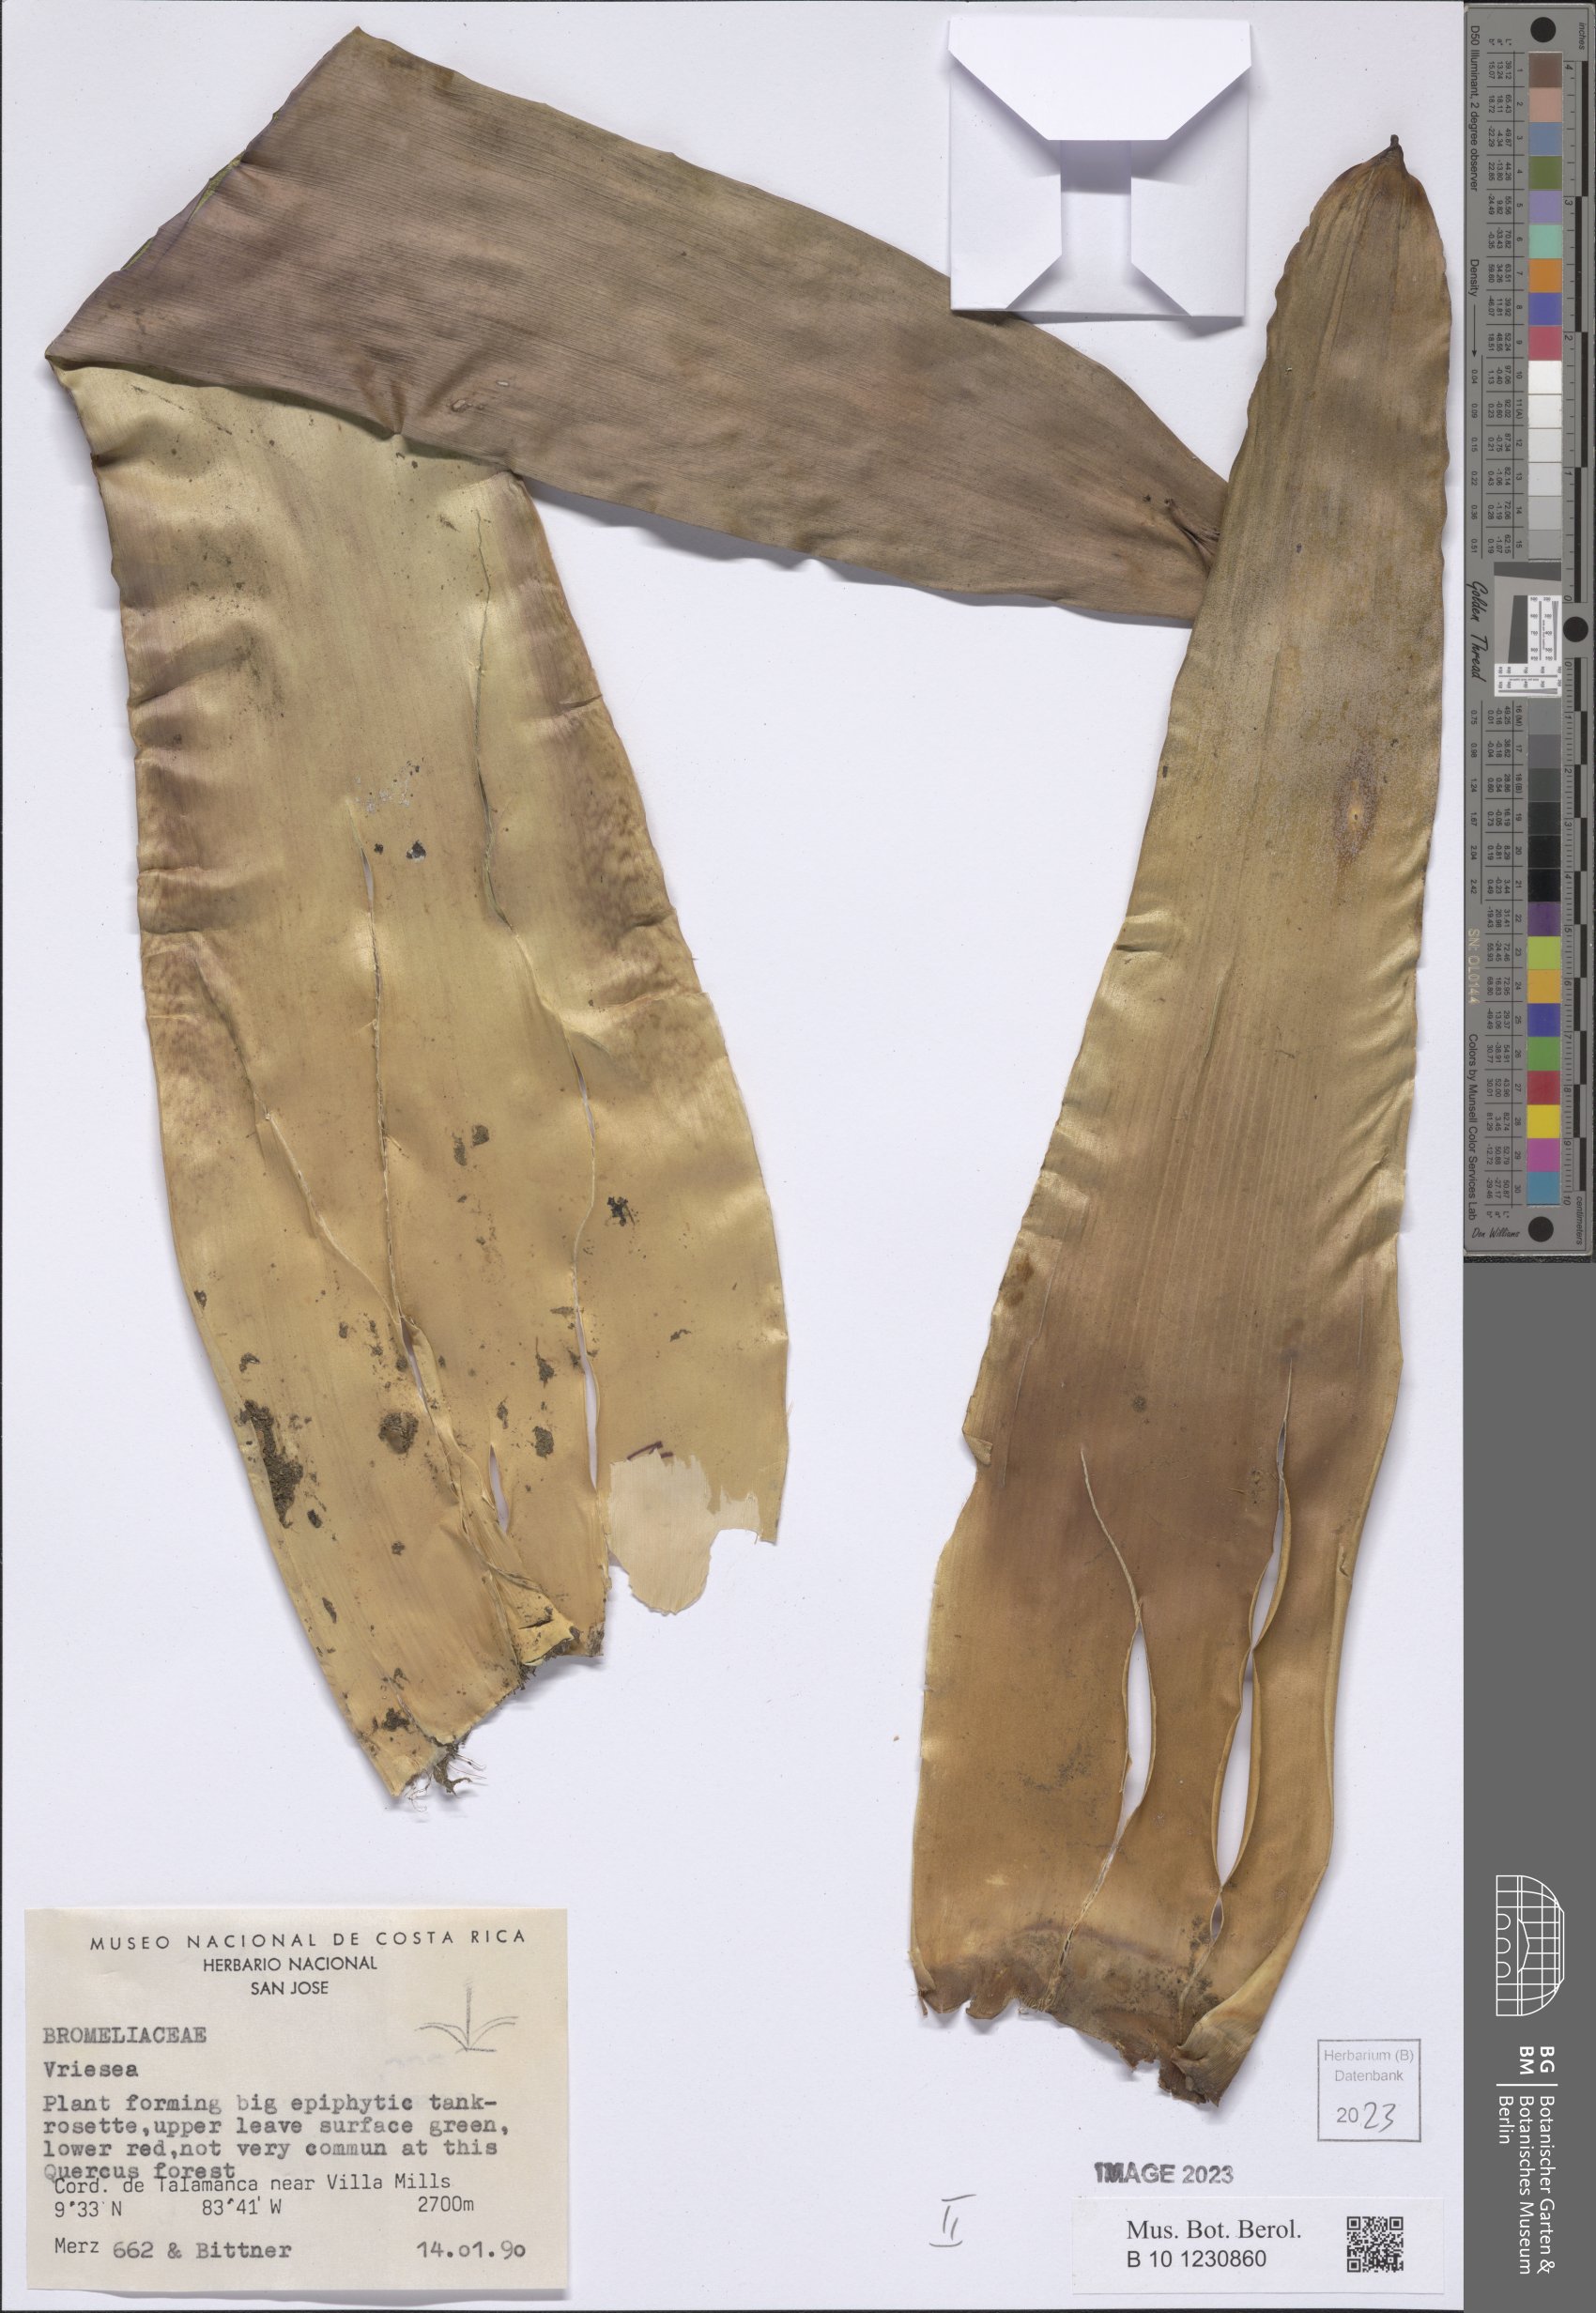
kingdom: Plantae
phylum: Tracheophyta
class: Liliopsida
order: Poales
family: Bromeliaceae
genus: Vriesea
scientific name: Vriesea
